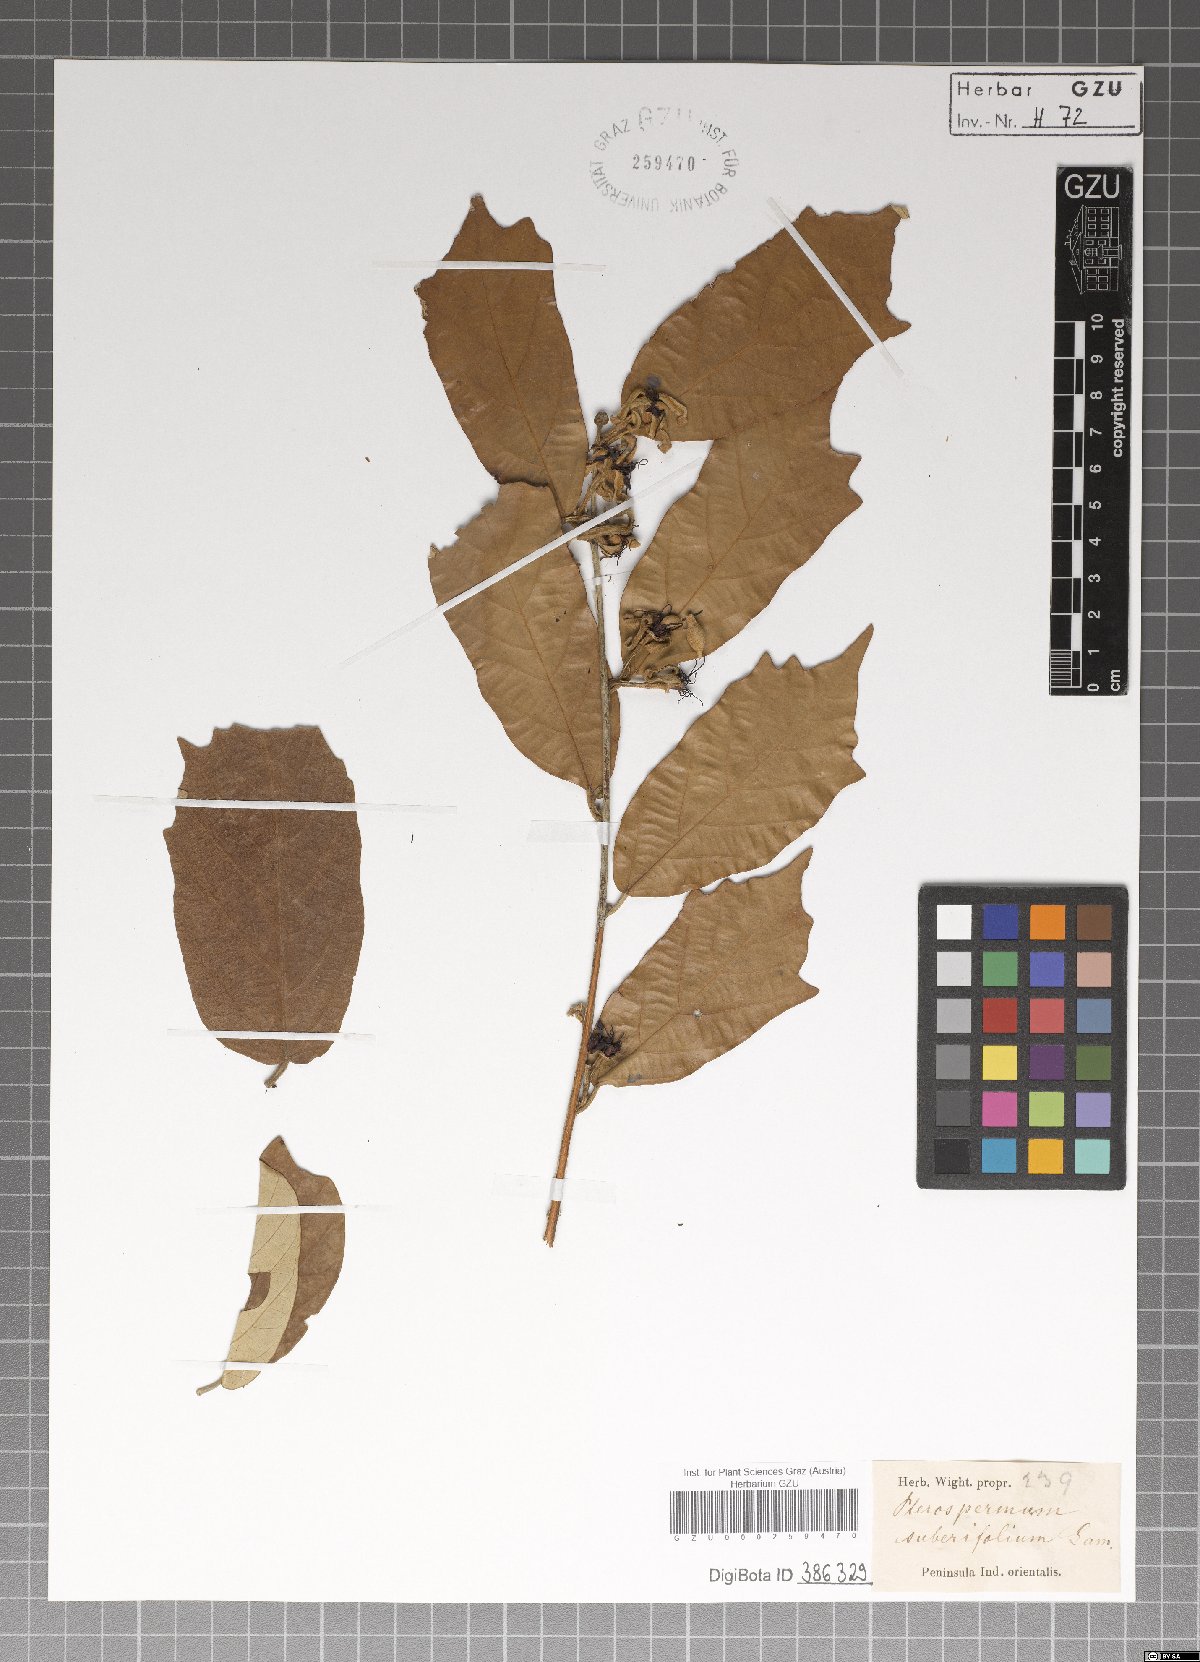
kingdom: Plantae
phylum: Tracheophyta
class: Magnoliopsida
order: Malvales
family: Malvaceae
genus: Pterospermum
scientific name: Pterospermum
